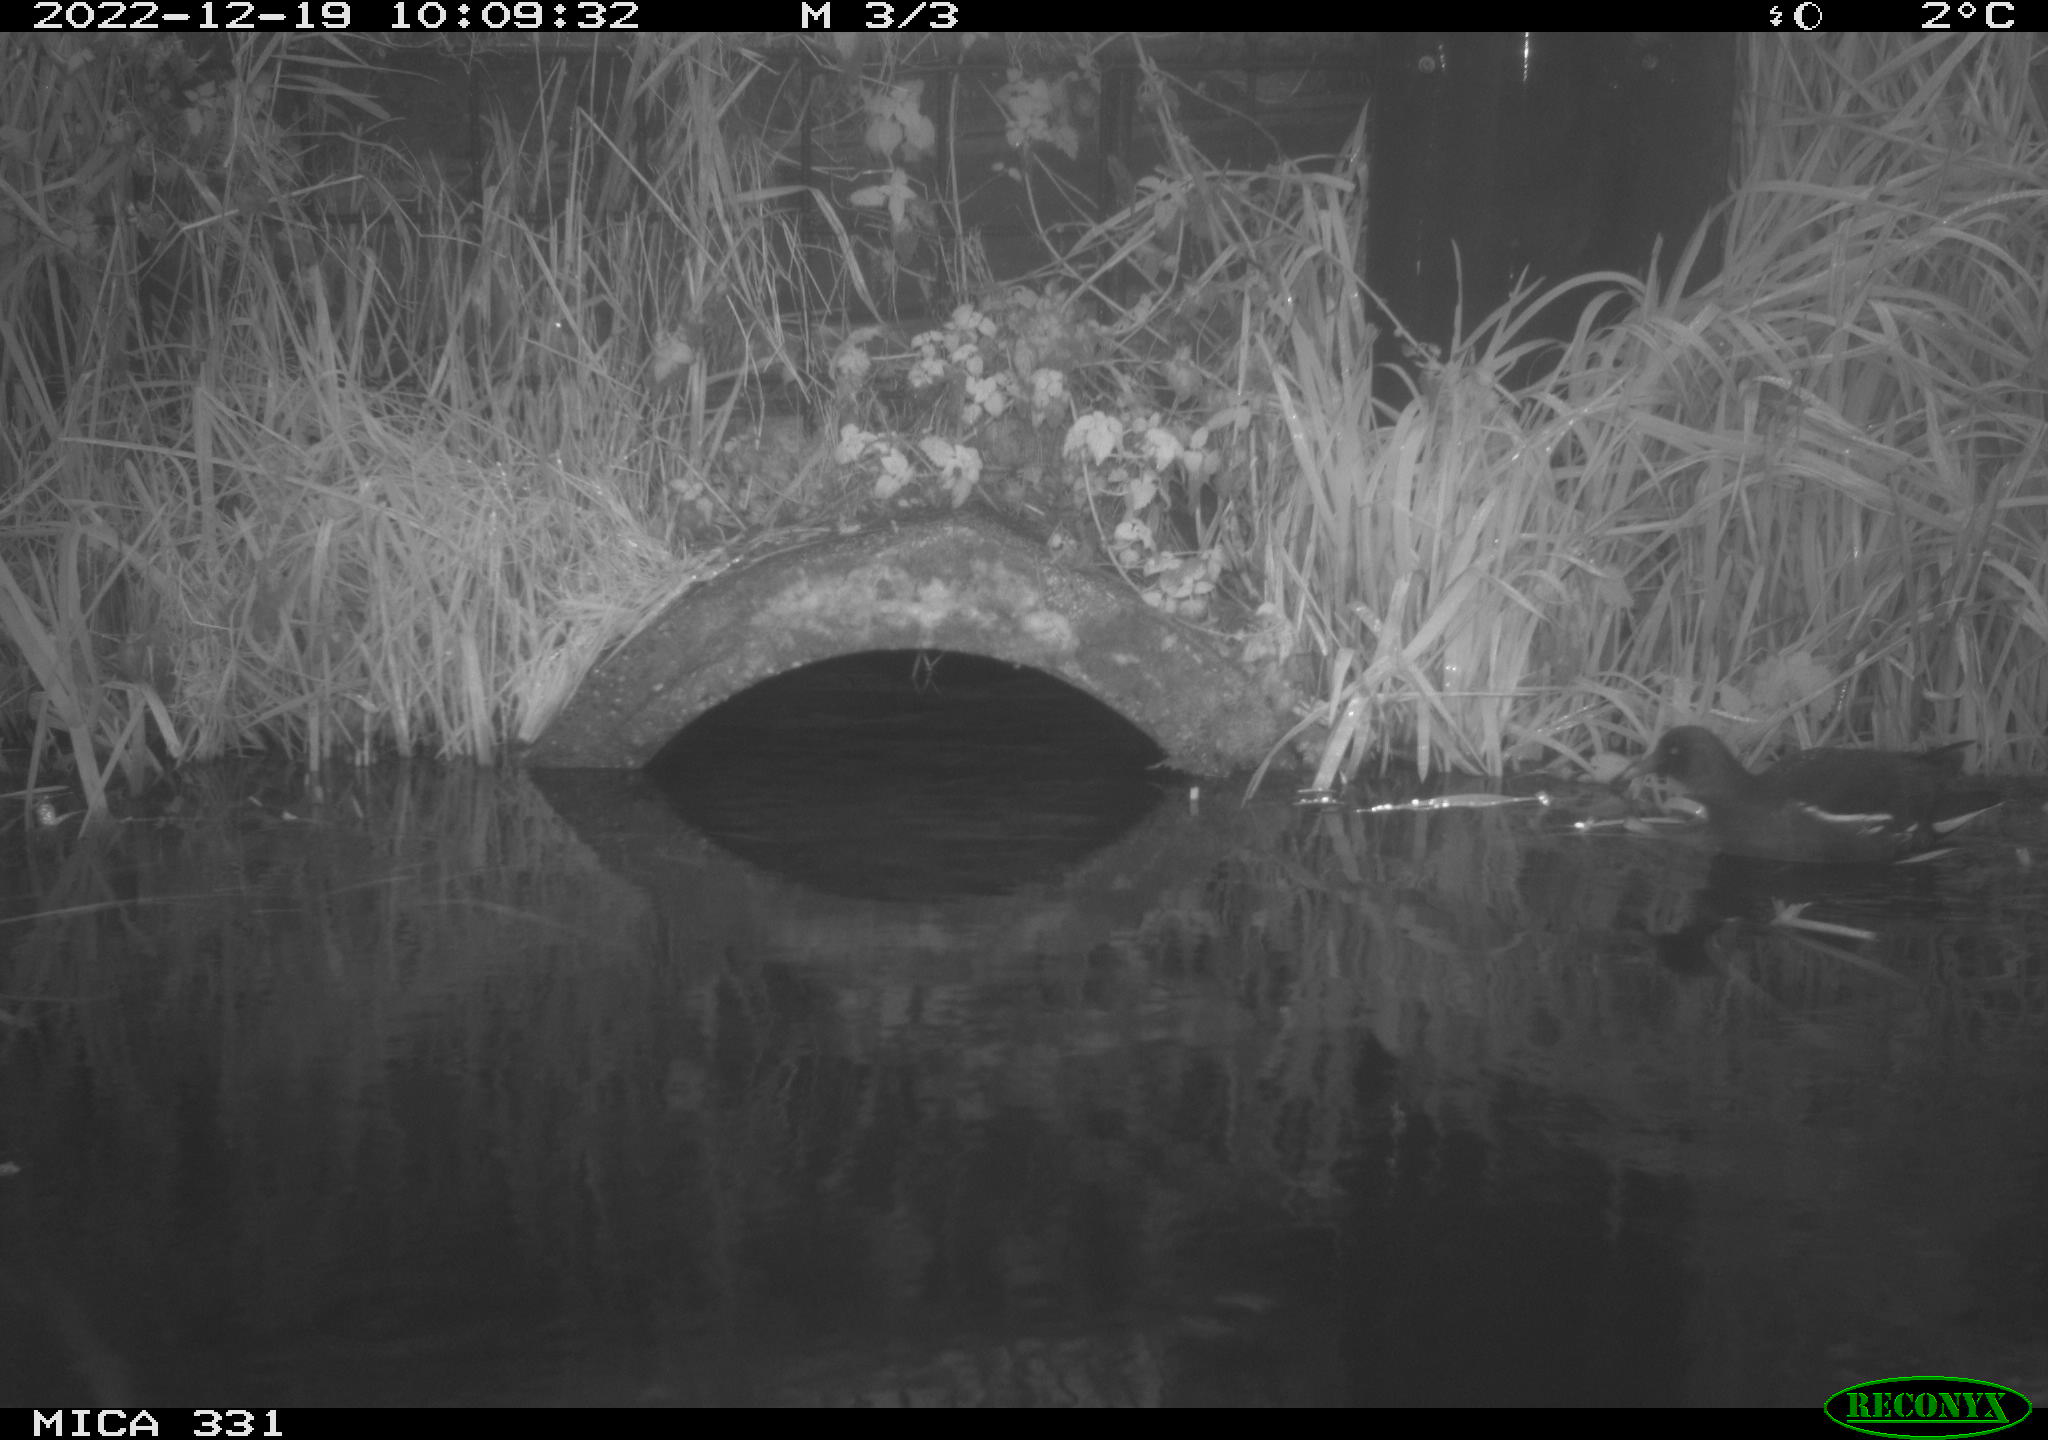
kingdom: Animalia
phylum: Chordata
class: Aves
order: Gruiformes
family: Rallidae
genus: Gallinula
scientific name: Gallinula chloropus
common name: Common moorhen
